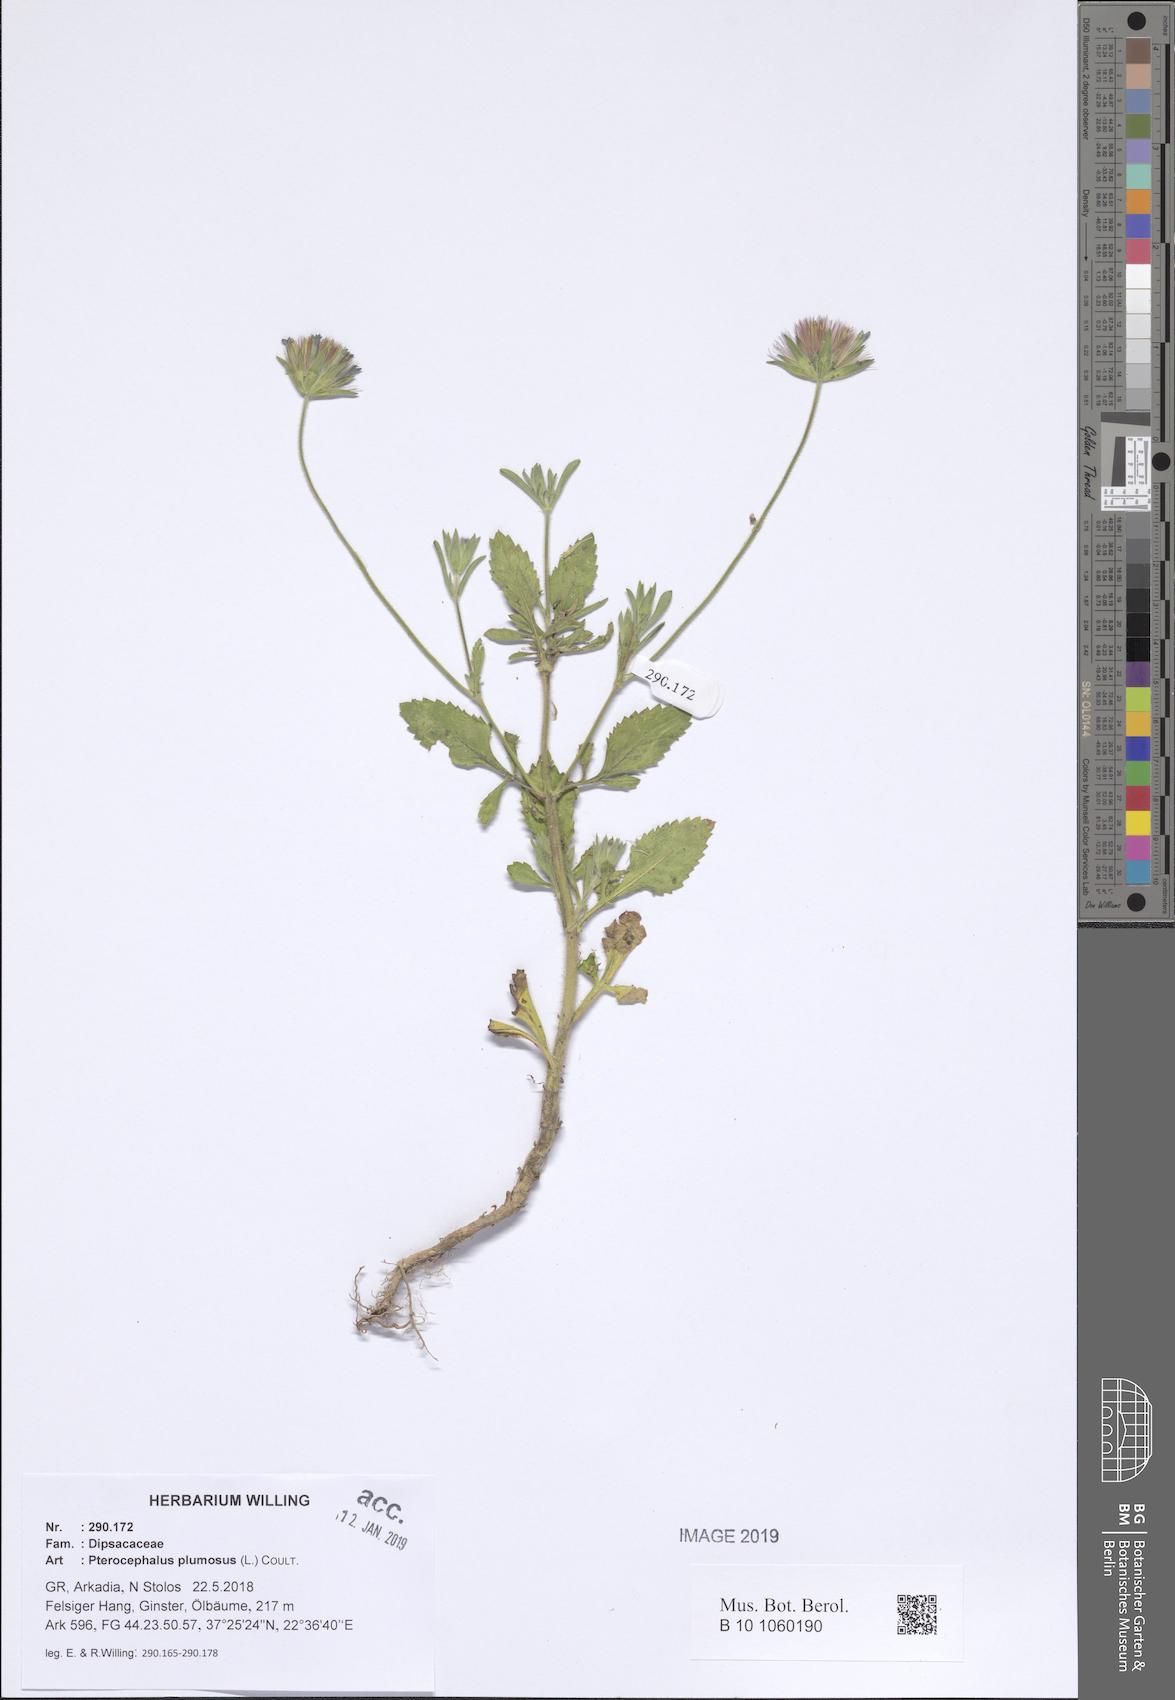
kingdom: Plantae
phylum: Tracheophyta
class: Magnoliopsida
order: Dipsacales
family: Caprifoliaceae
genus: Pterocephalus
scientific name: Pterocephalus plumosus
